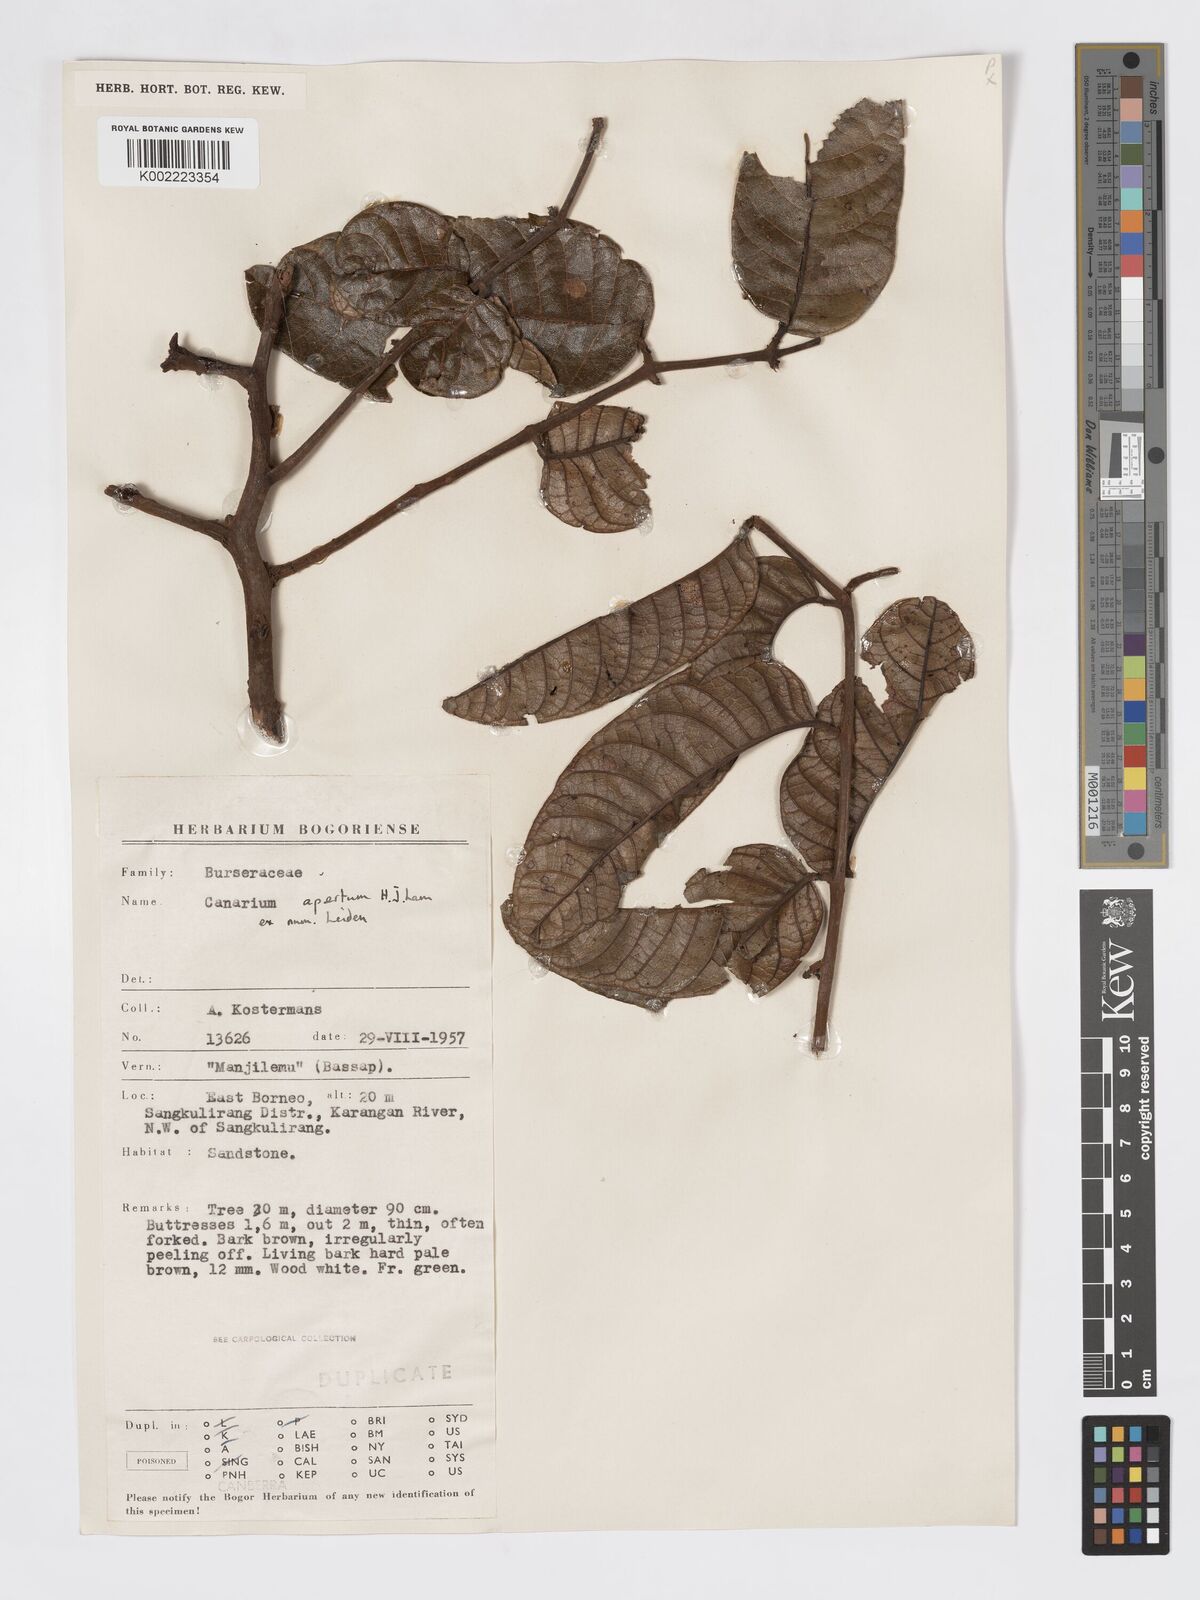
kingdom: Plantae
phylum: Tracheophyta
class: Magnoliopsida
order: Sapindales
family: Burseraceae
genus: Canarium
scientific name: Canarium apertum
